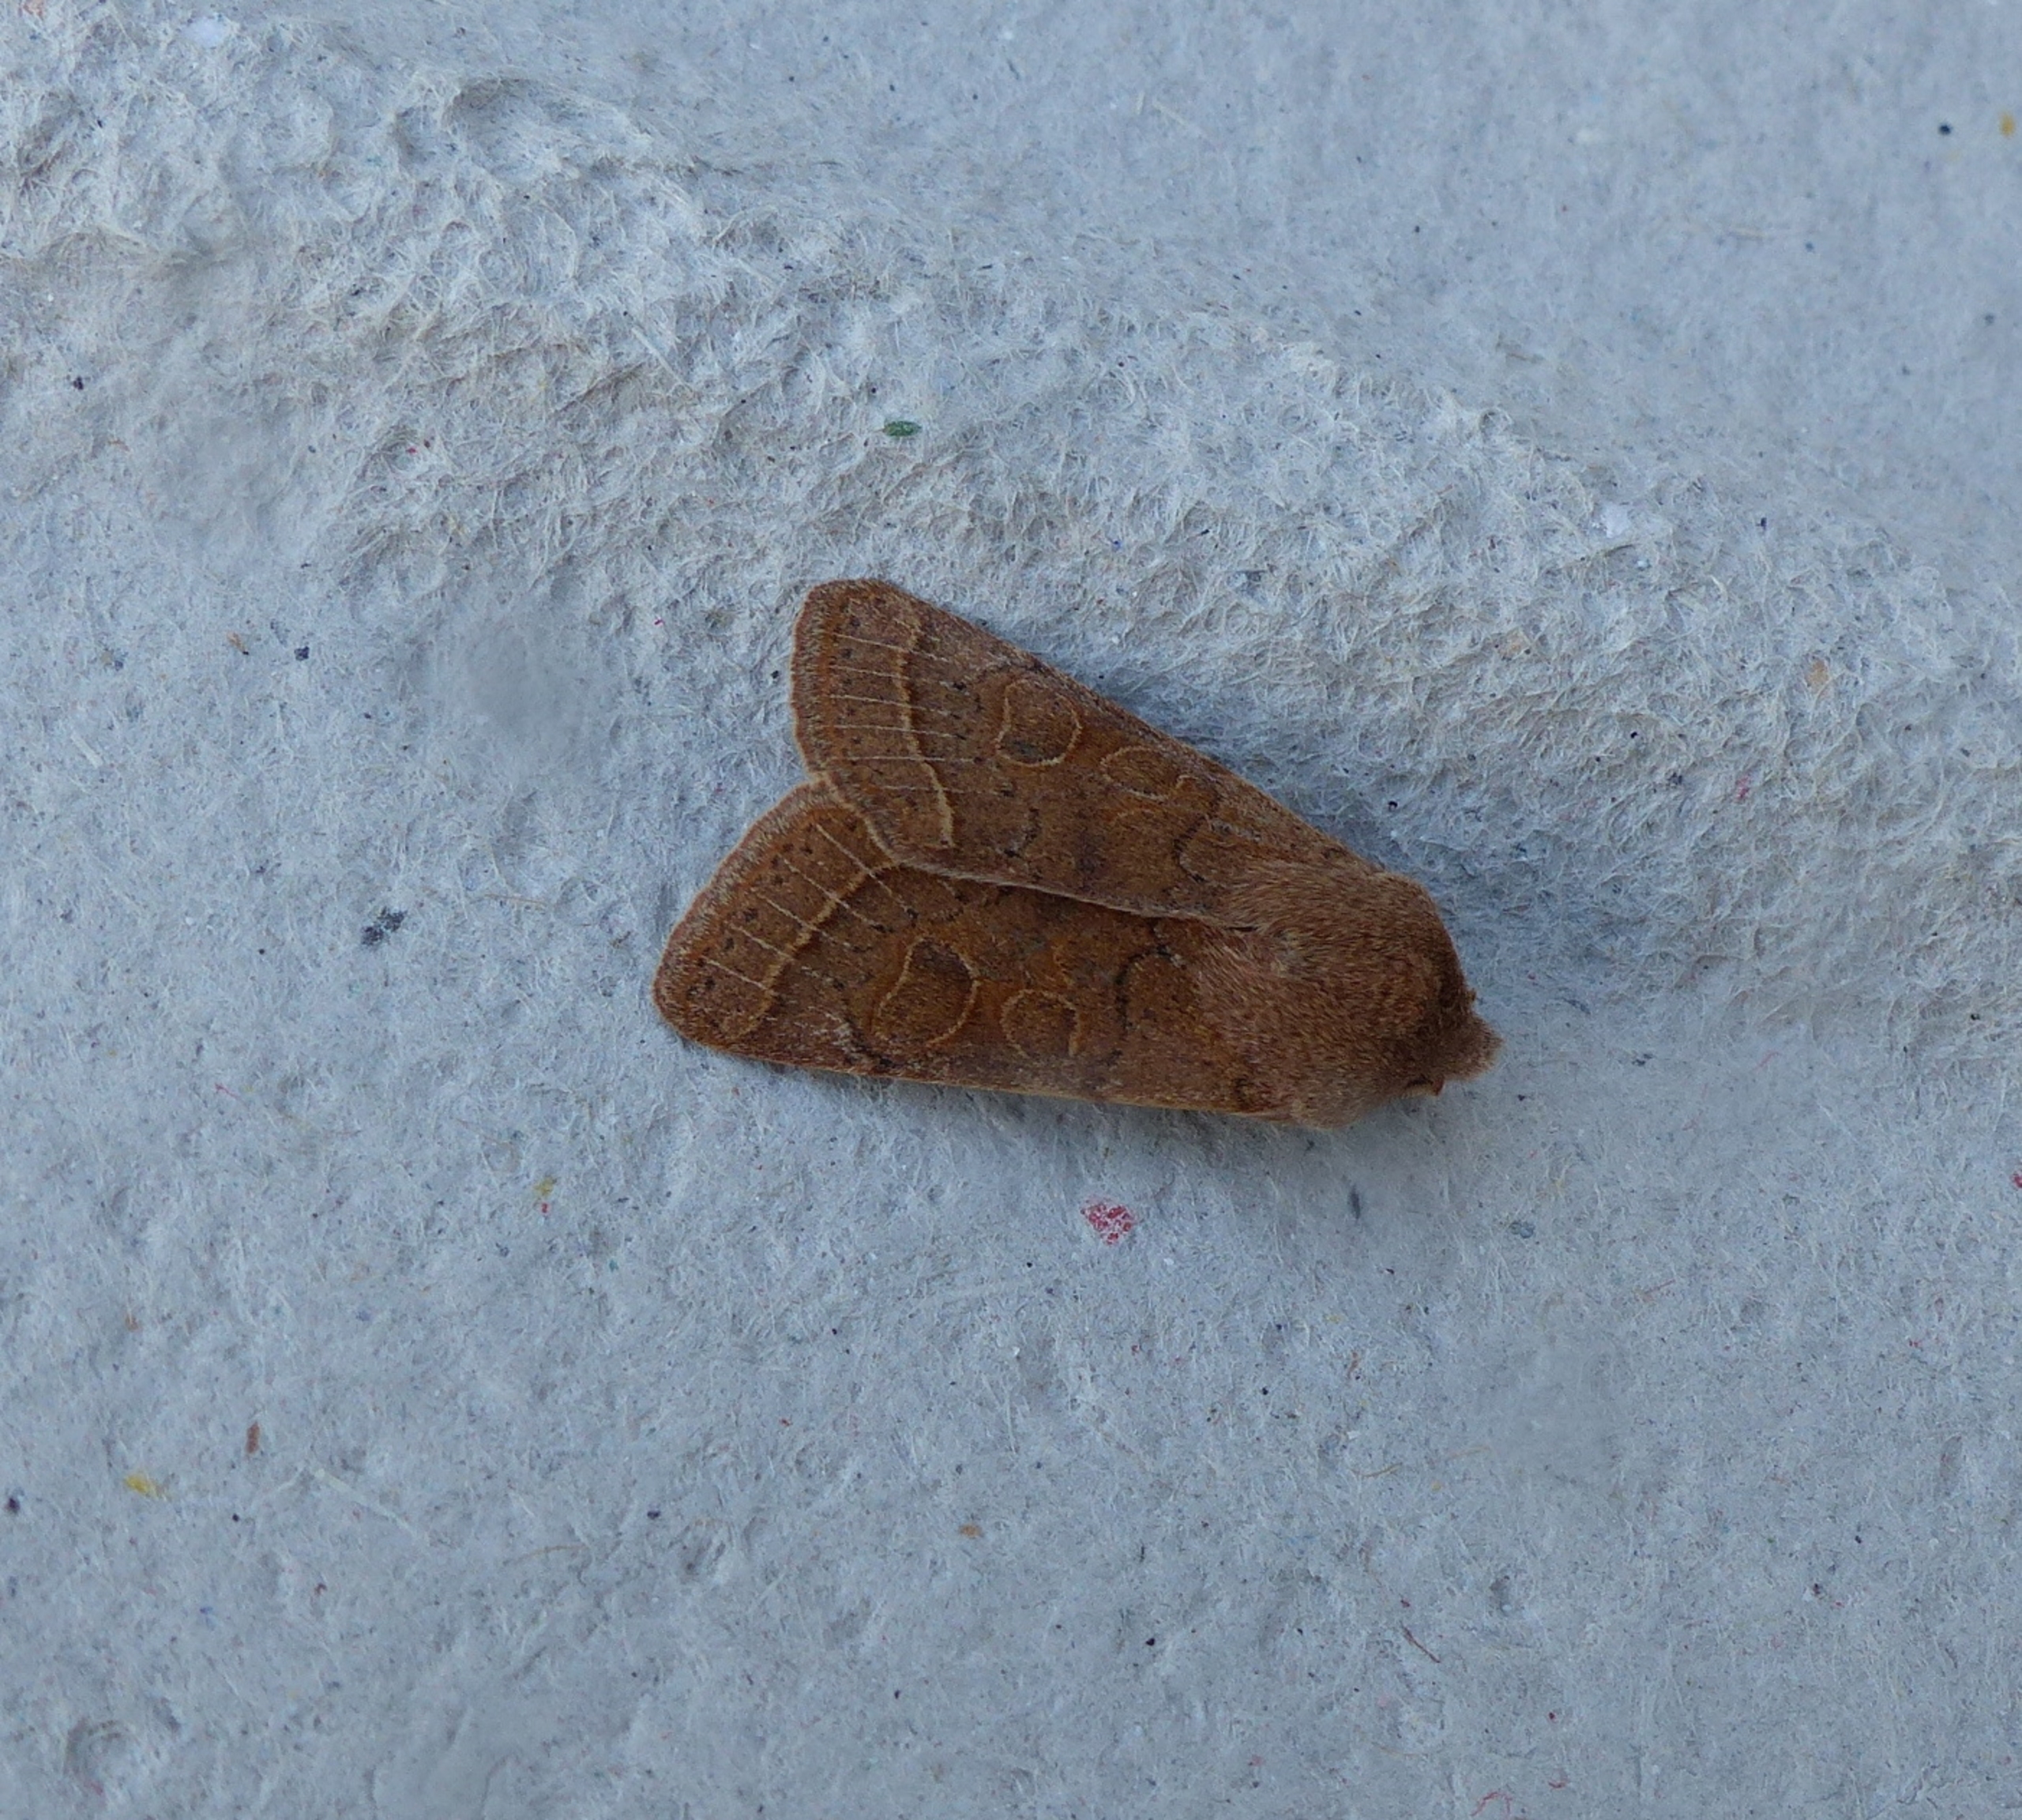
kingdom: Animalia
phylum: Arthropoda
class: Insecta
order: Lepidoptera
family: Noctuidae
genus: Orthosia
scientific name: Orthosia cerasi
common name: Rødgul forårsugle
